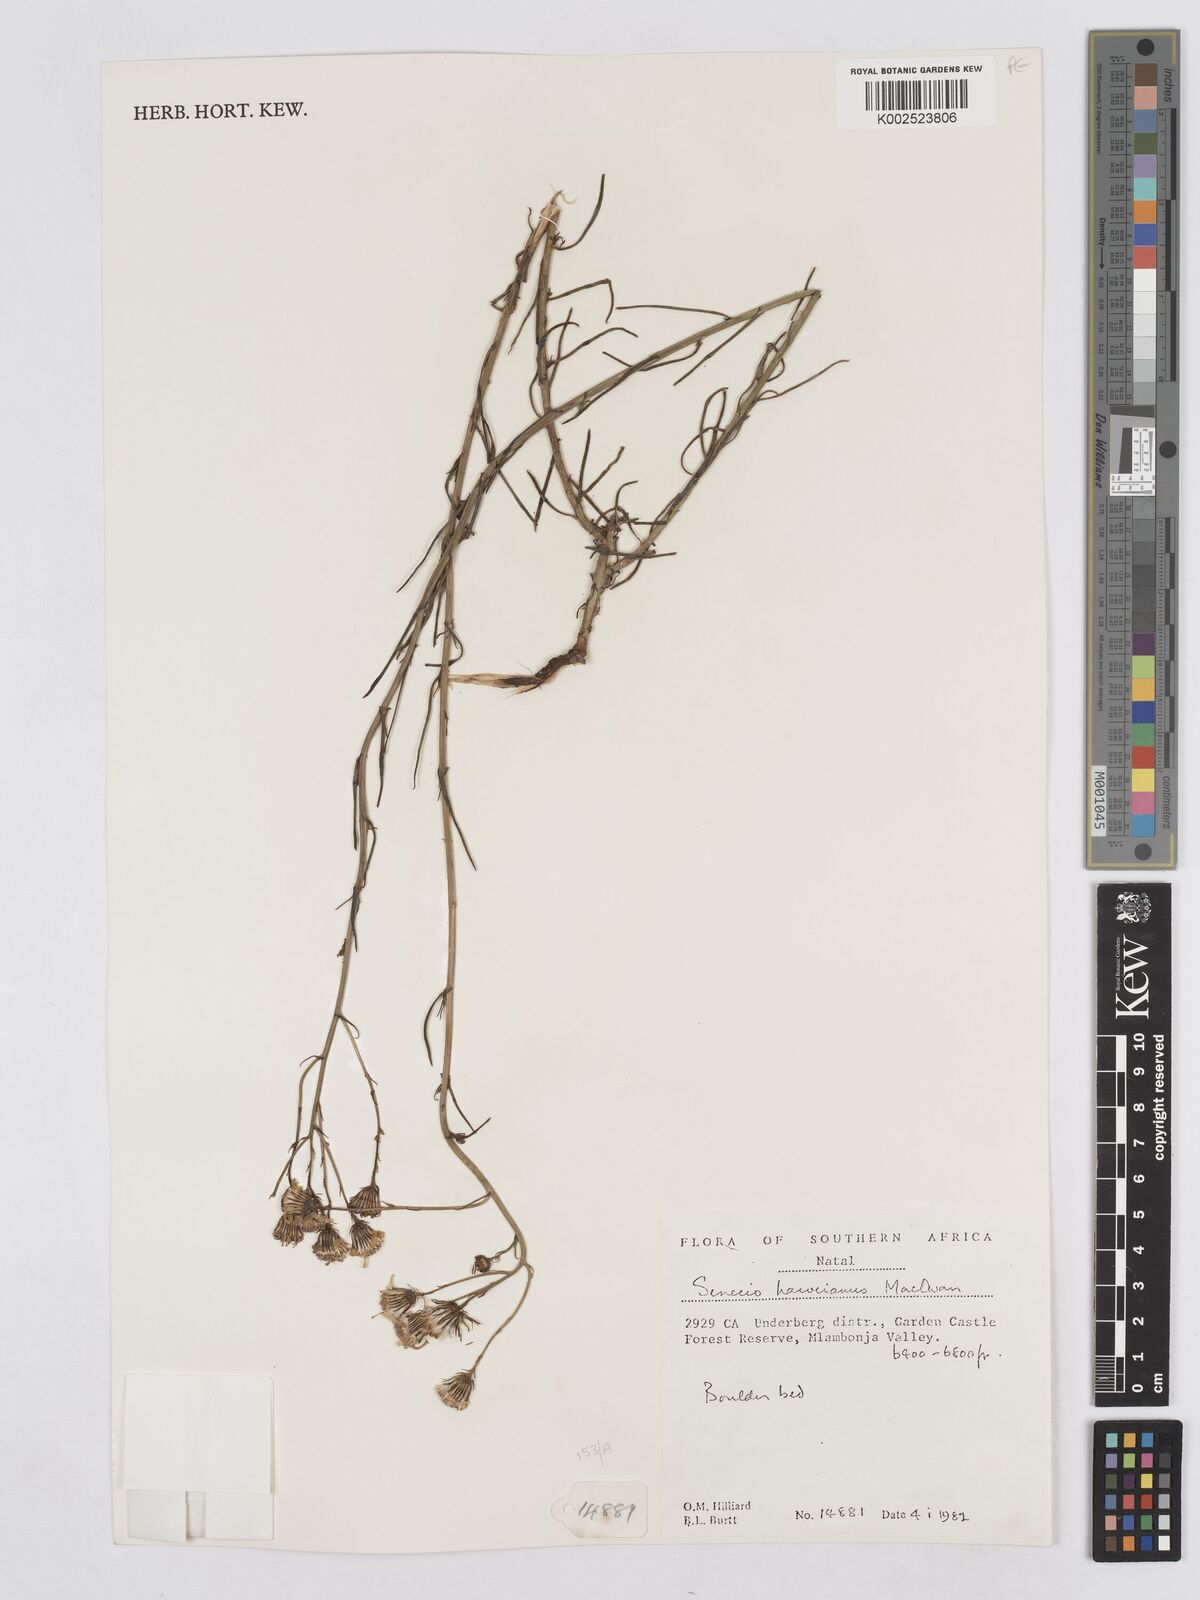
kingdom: Plantae
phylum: Tracheophyta
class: Magnoliopsida
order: Asterales
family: Asteraceae
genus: Senecio
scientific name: Senecio harveyanus
